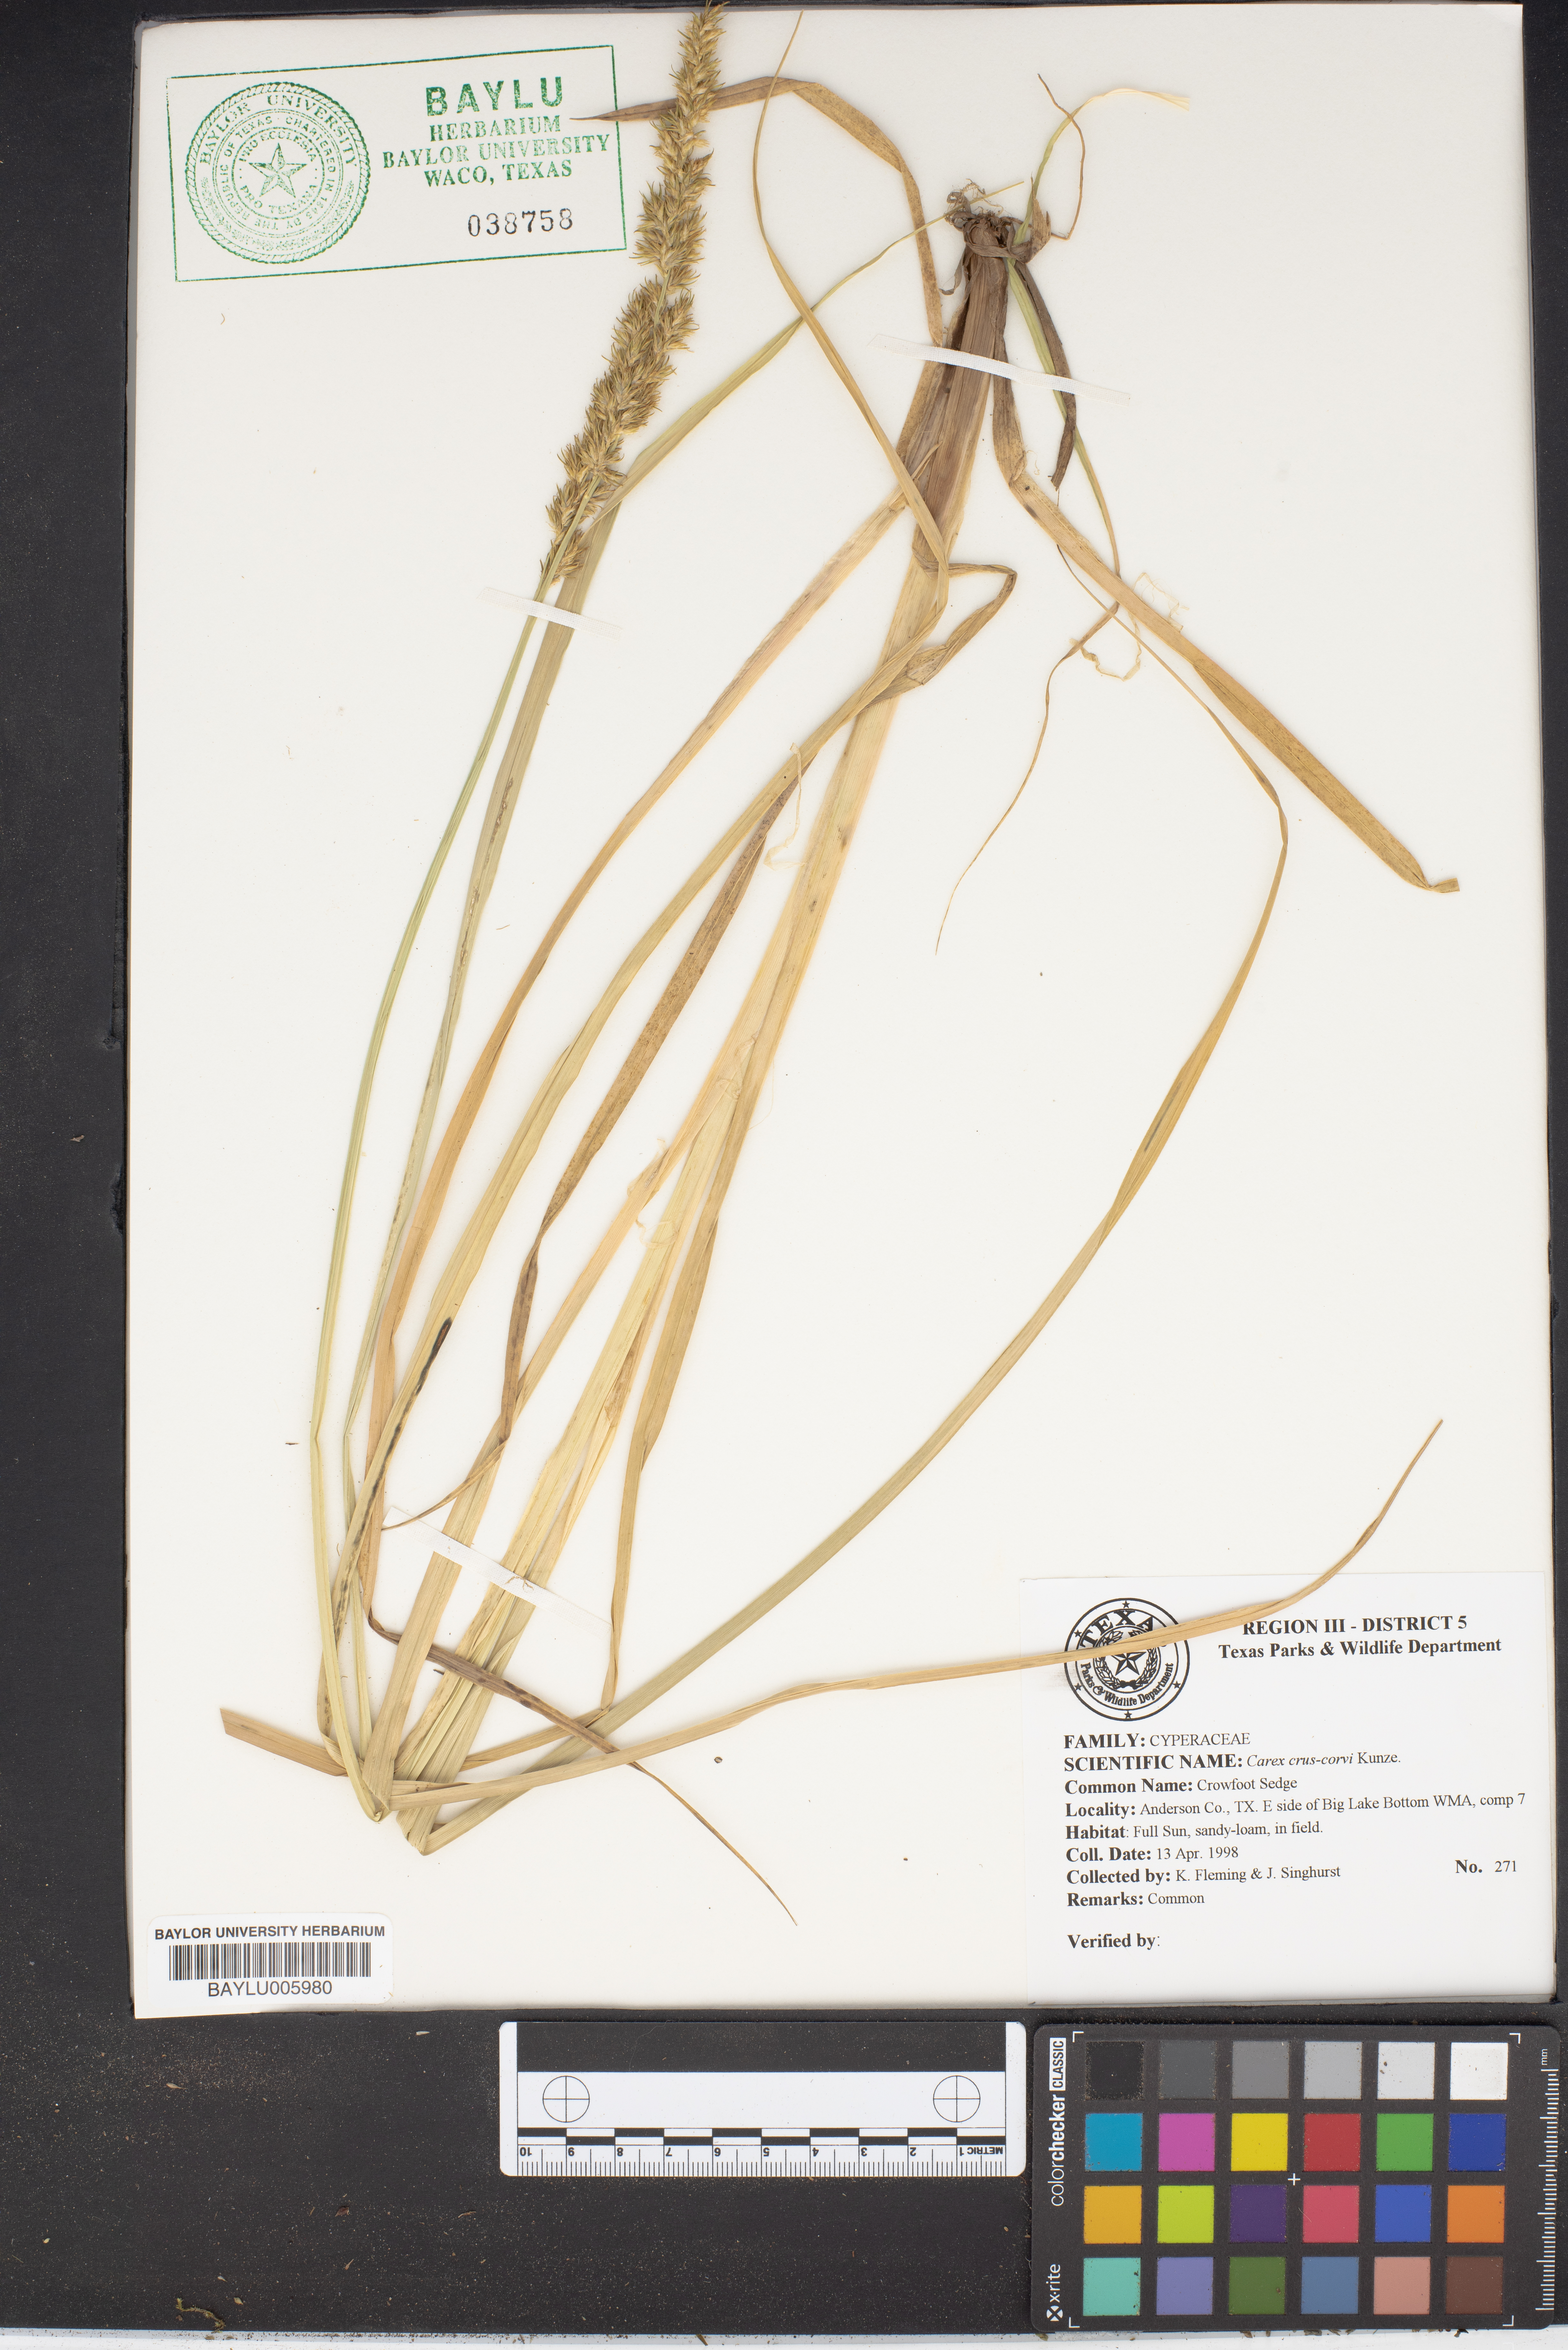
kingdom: Plantae
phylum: Tracheophyta
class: Liliopsida
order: Poales
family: Cyperaceae
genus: Carex
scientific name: Carex crus-corvi
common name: Crow-spur sedge
